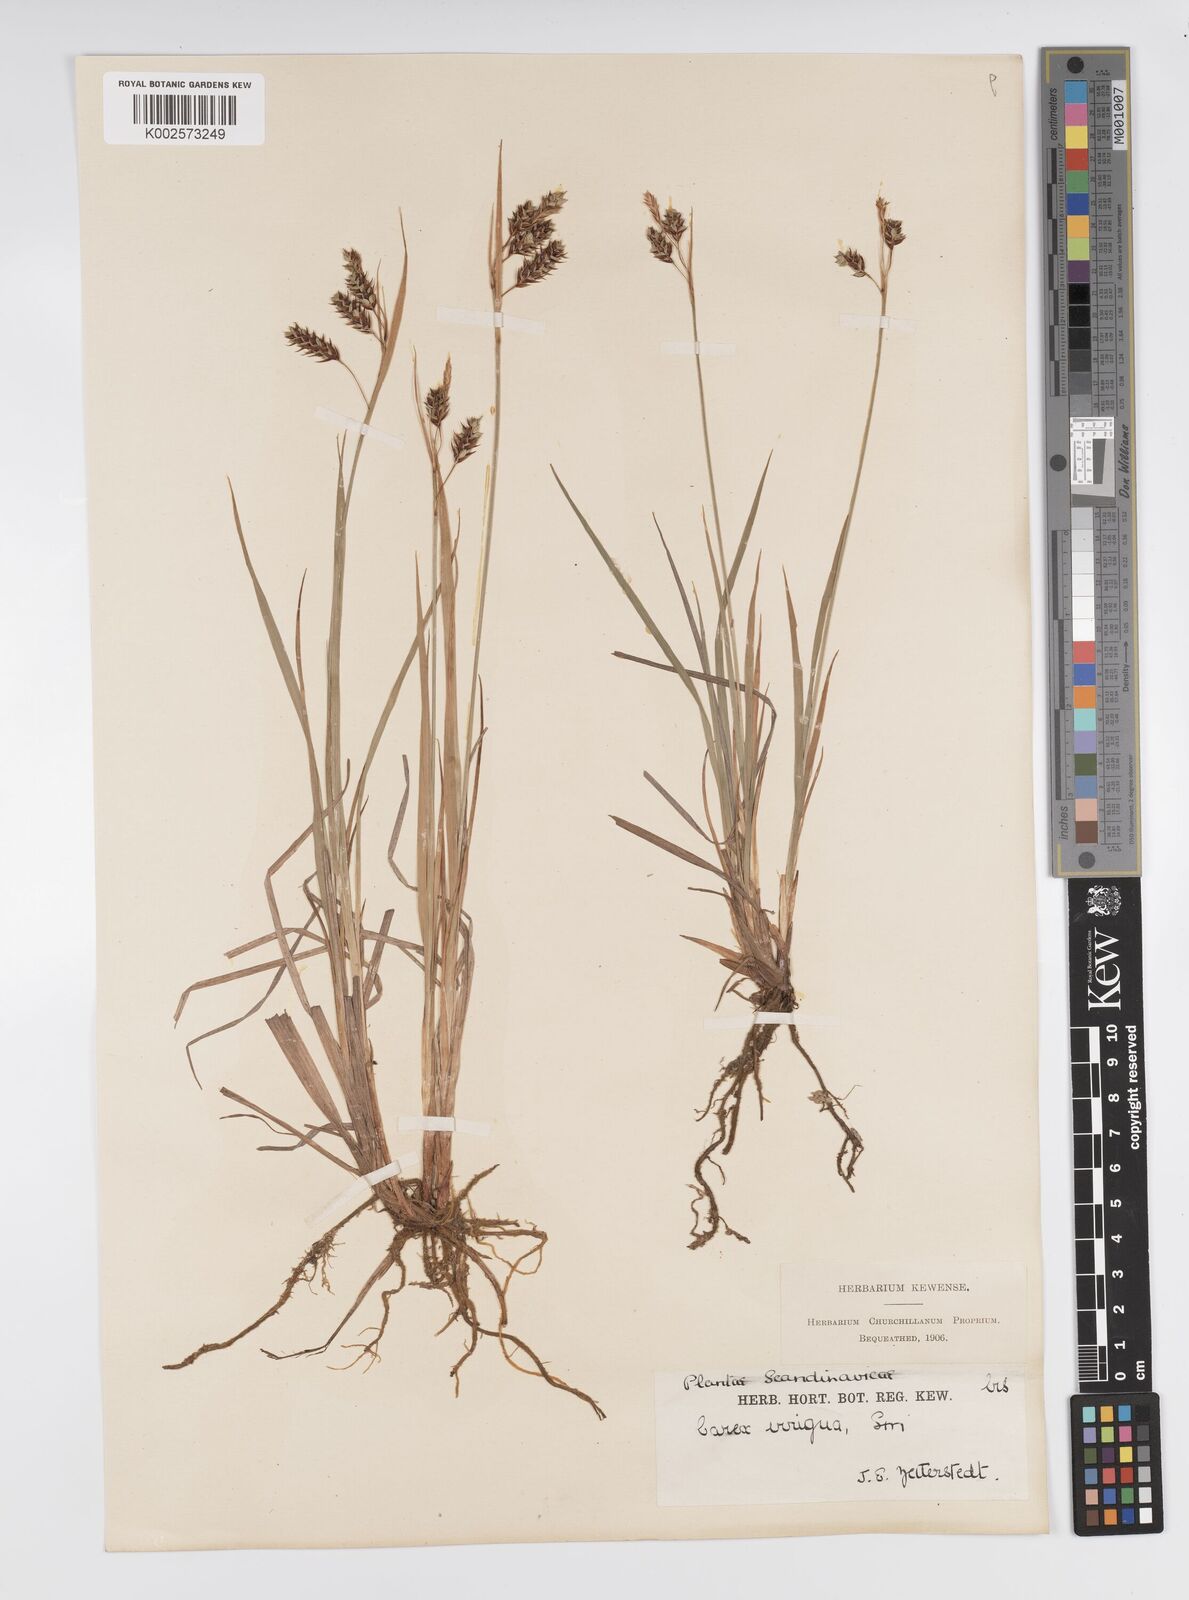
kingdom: Plantae
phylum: Tracheophyta
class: Liliopsida
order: Poales
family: Cyperaceae
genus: Carex
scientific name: Carex magellanica
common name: Bog sedge
